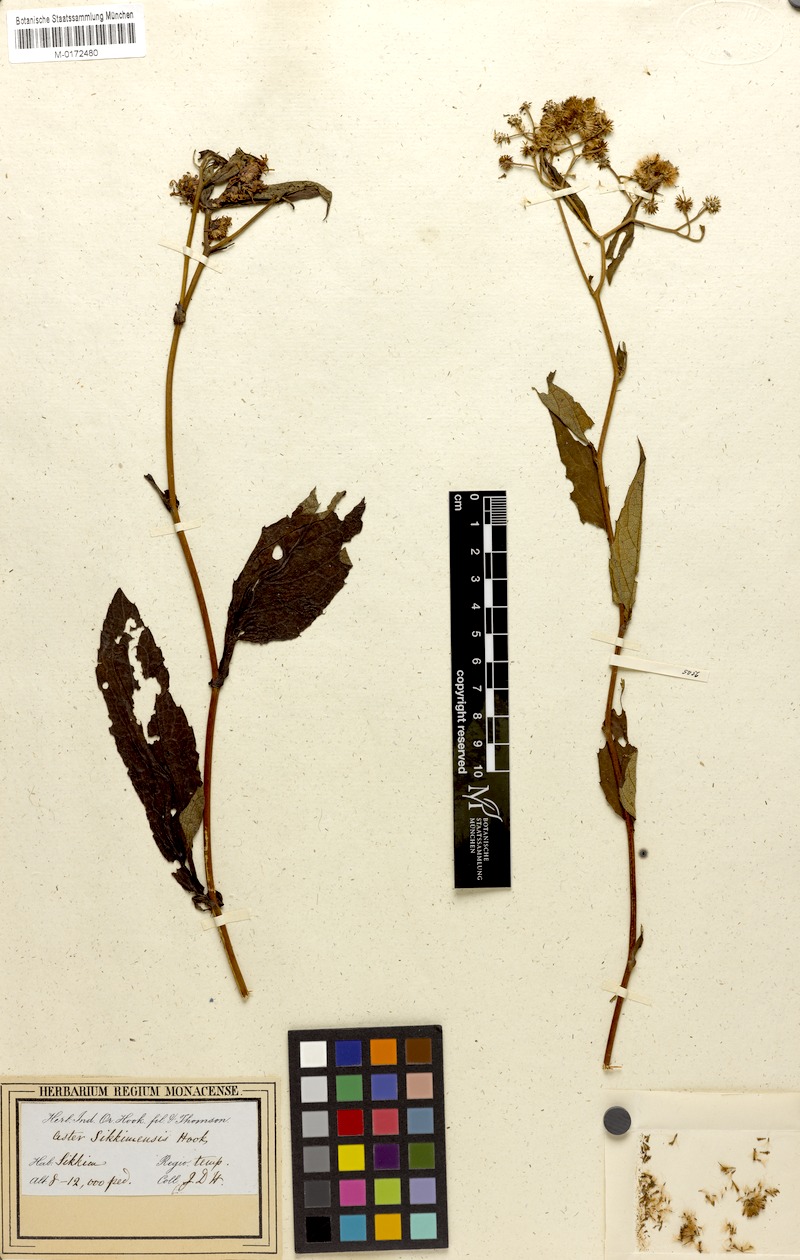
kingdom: Plantae
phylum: Tracheophyta
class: Magnoliopsida
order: Asterales
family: Asteraceae
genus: Metamyriactis
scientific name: Metamyriactis sikkimensis
